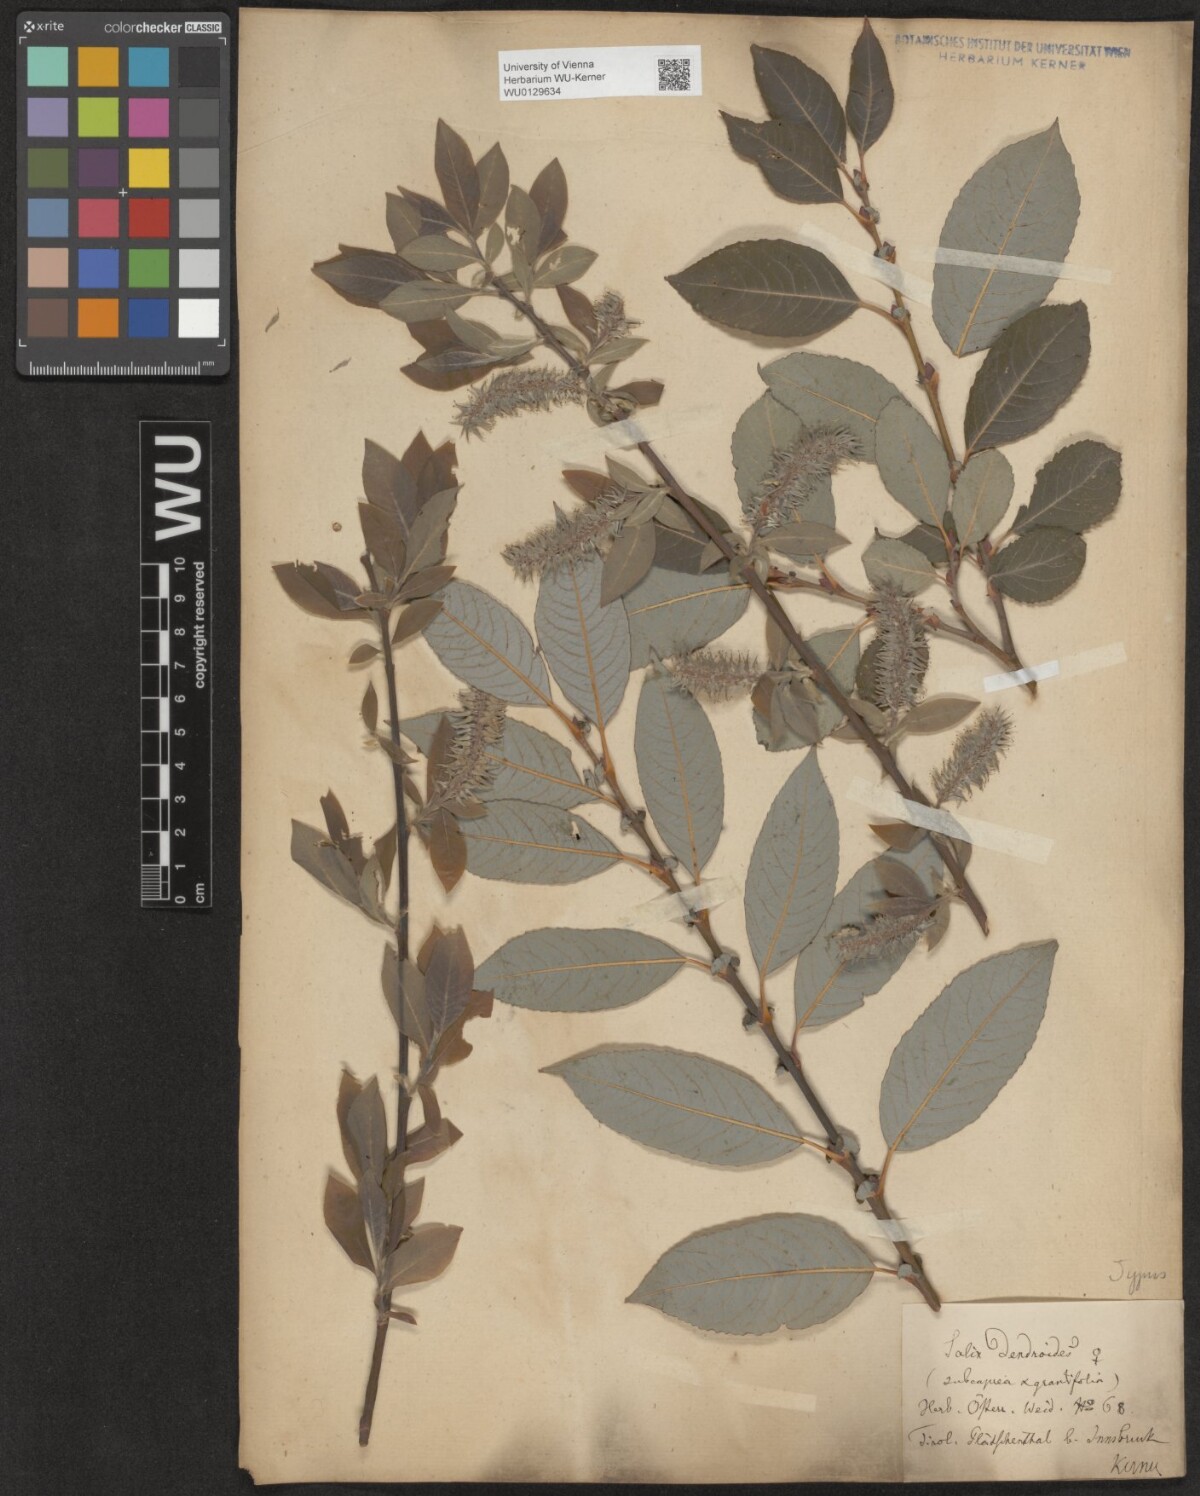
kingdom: Plantae
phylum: Tracheophyta
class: Magnoliopsida
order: Malpighiales
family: Salicaceae
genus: Salix
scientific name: Salix dendroides
